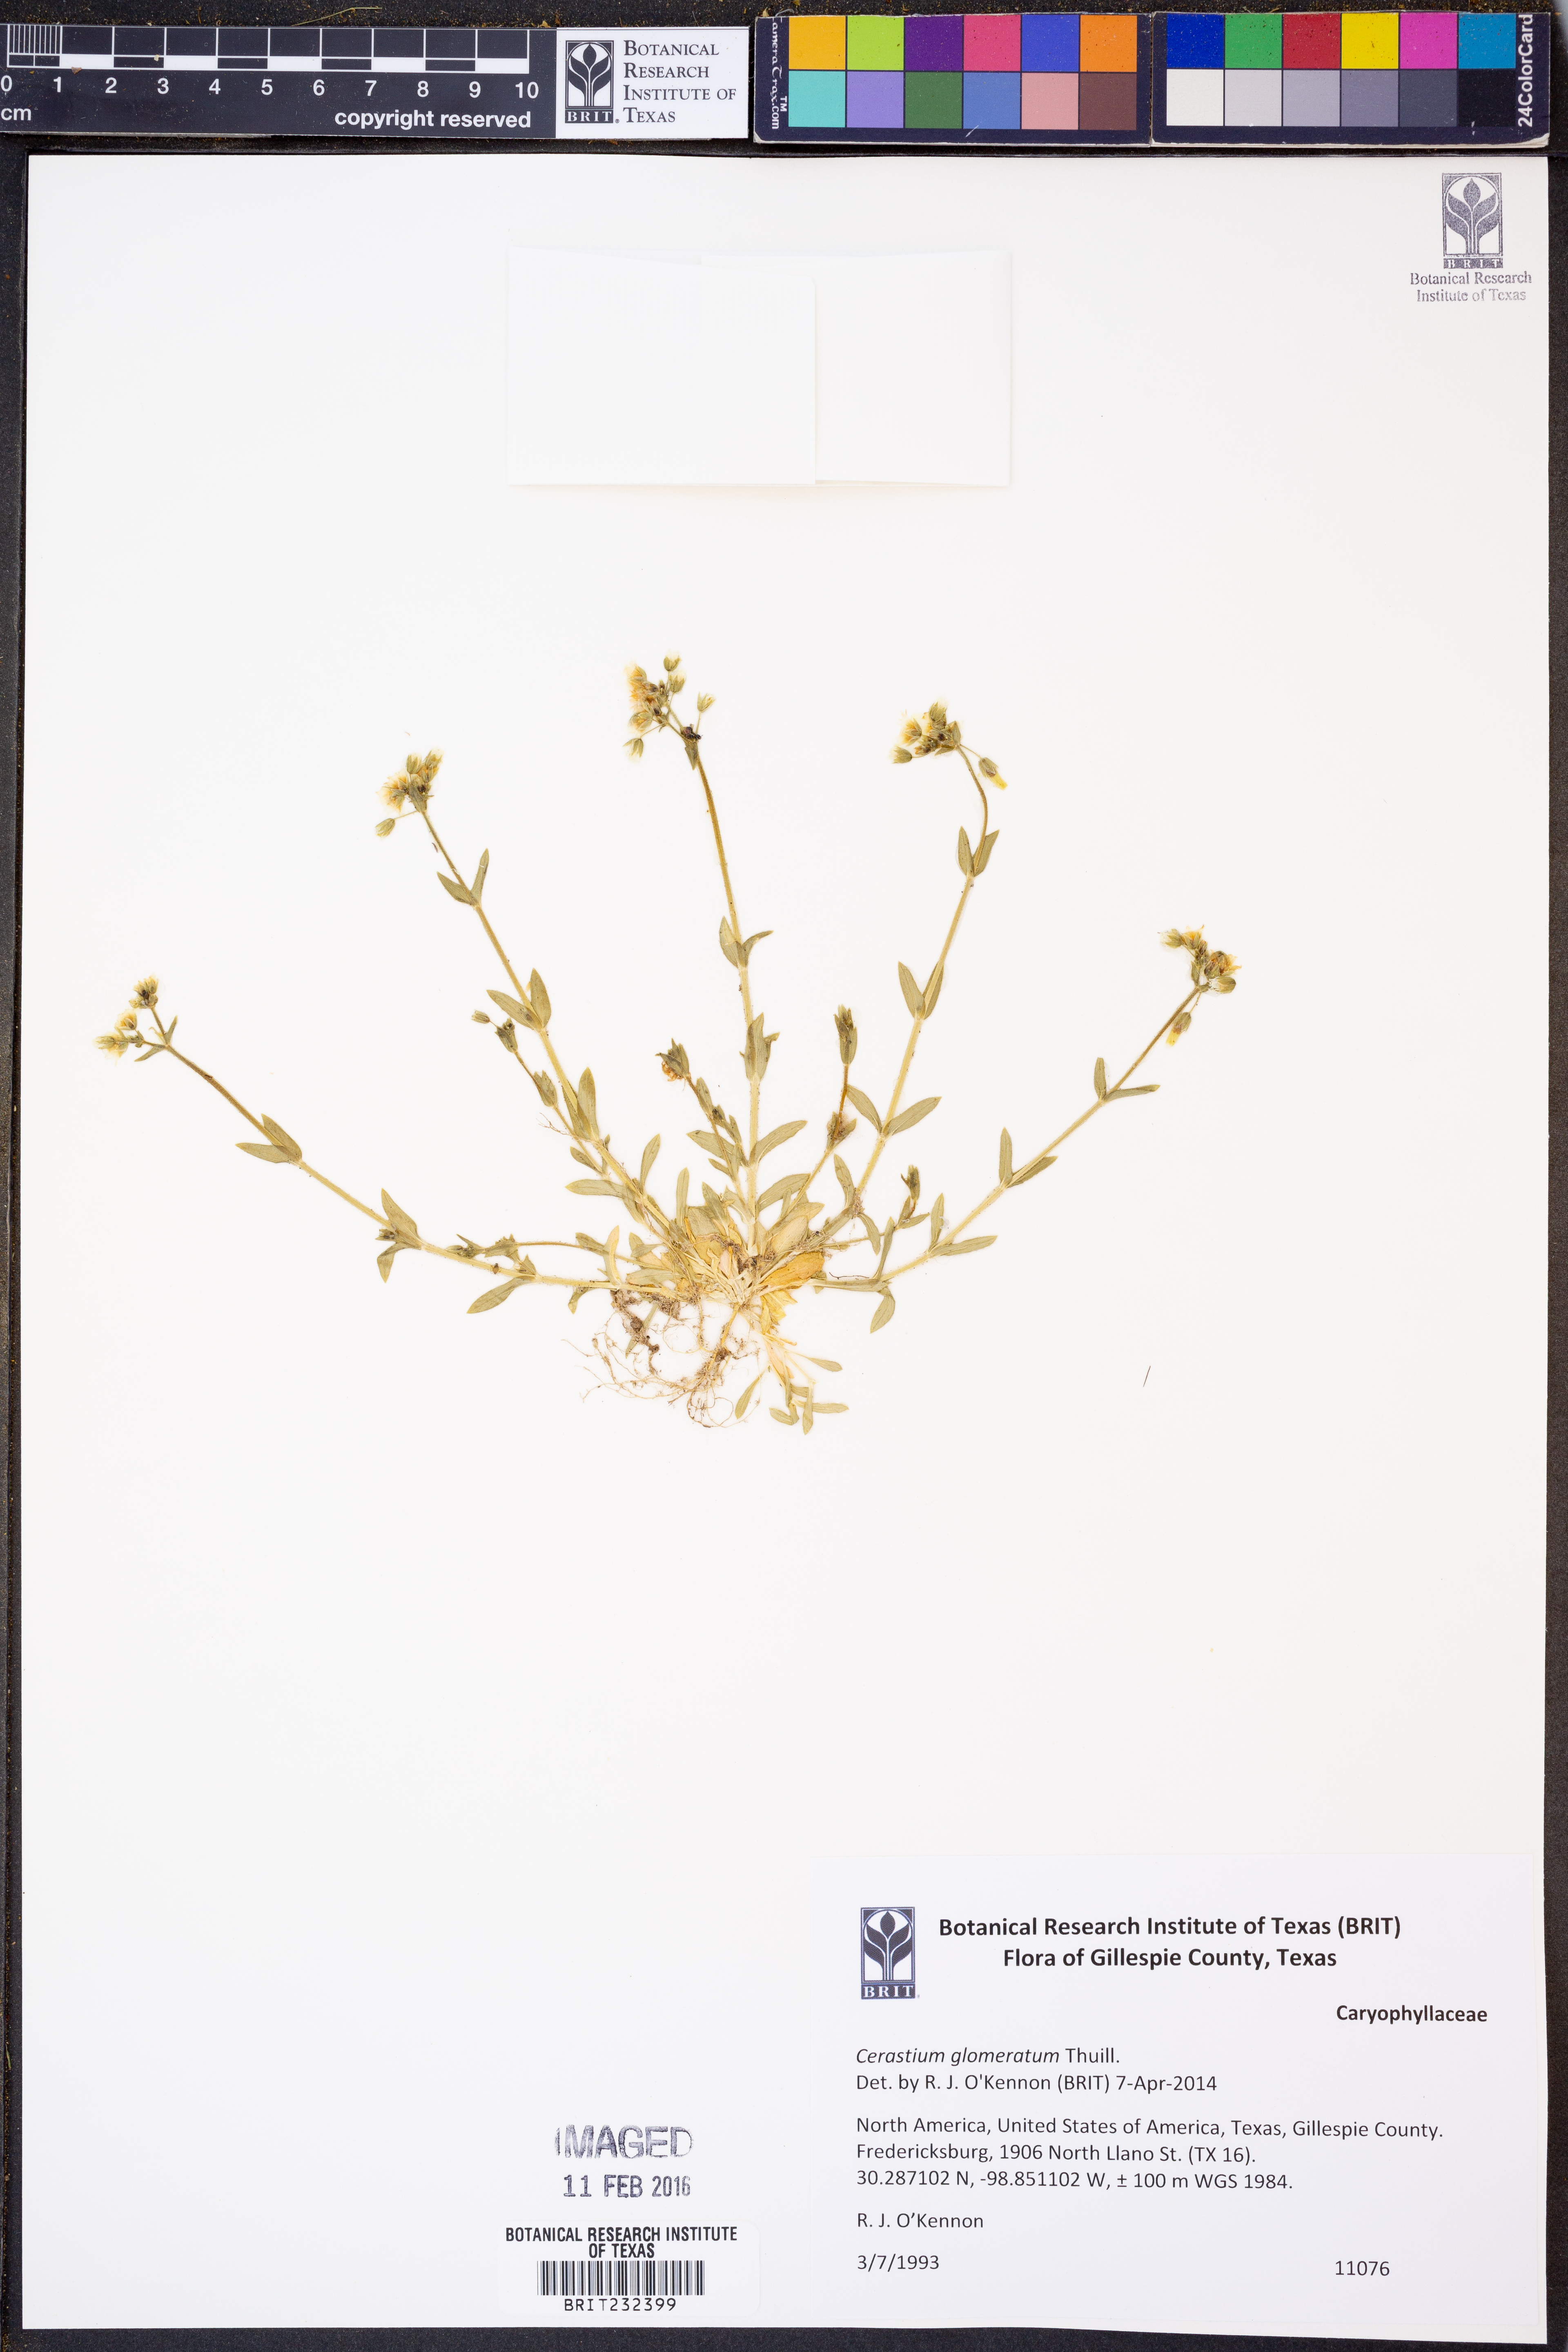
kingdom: Plantae
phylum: Tracheophyta
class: Magnoliopsida
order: Caryophyllales
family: Caryophyllaceae
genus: Cerastium
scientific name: Cerastium glomeratum
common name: Sticky chickweed
